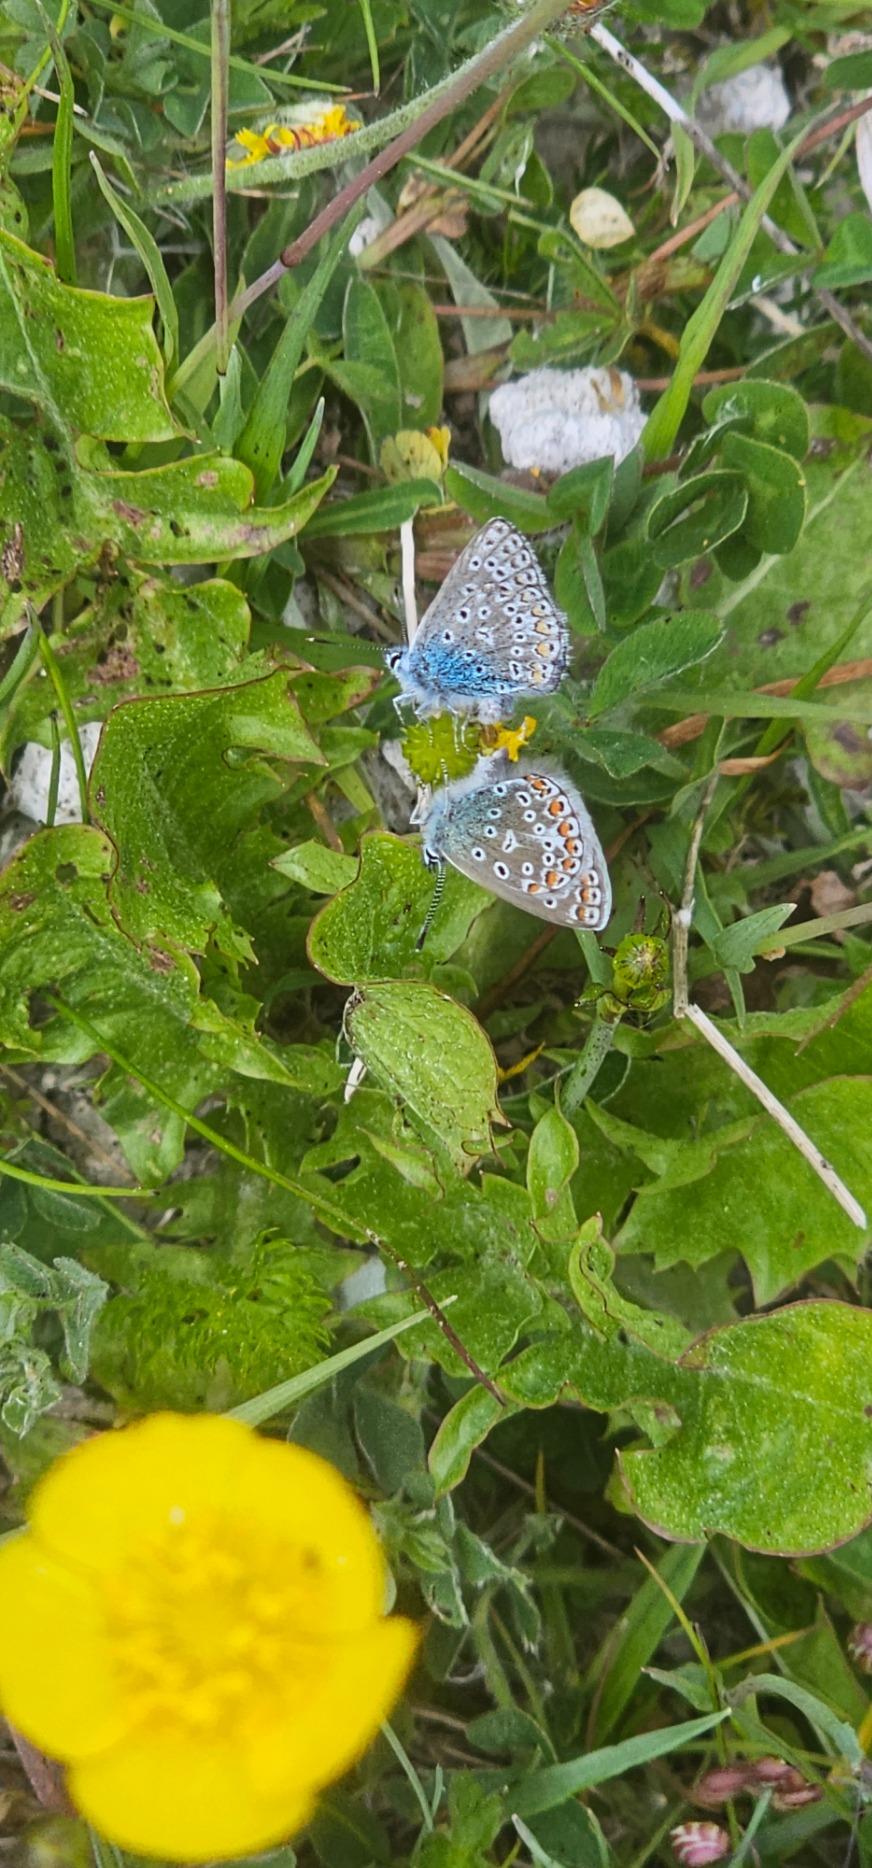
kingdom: Animalia
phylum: Arthropoda
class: Insecta
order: Lepidoptera
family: Lycaenidae
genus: Polyommatus
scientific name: Polyommatus icarus
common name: Almindelig blåfugl
